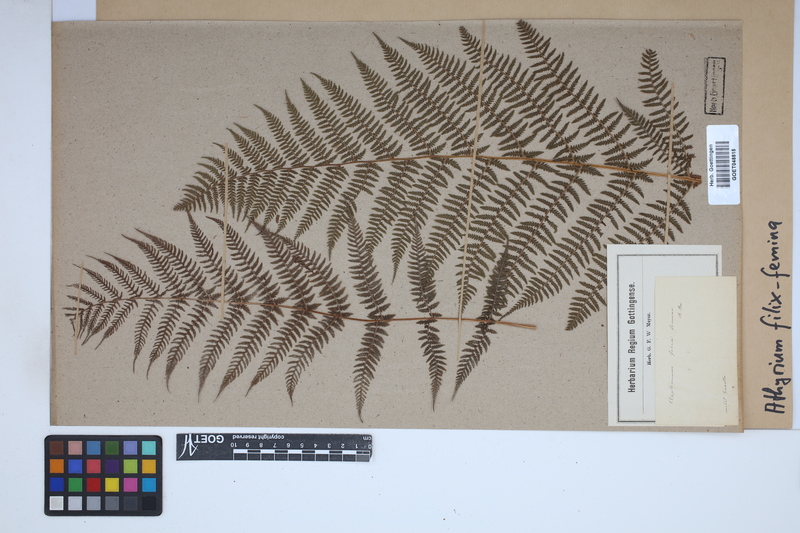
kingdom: Plantae
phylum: Tracheophyta
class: Polypodiopsida
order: Polypodiales
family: Athyriaceae
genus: Athyrium
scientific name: Athyrium filix-femina
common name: Lady fern
